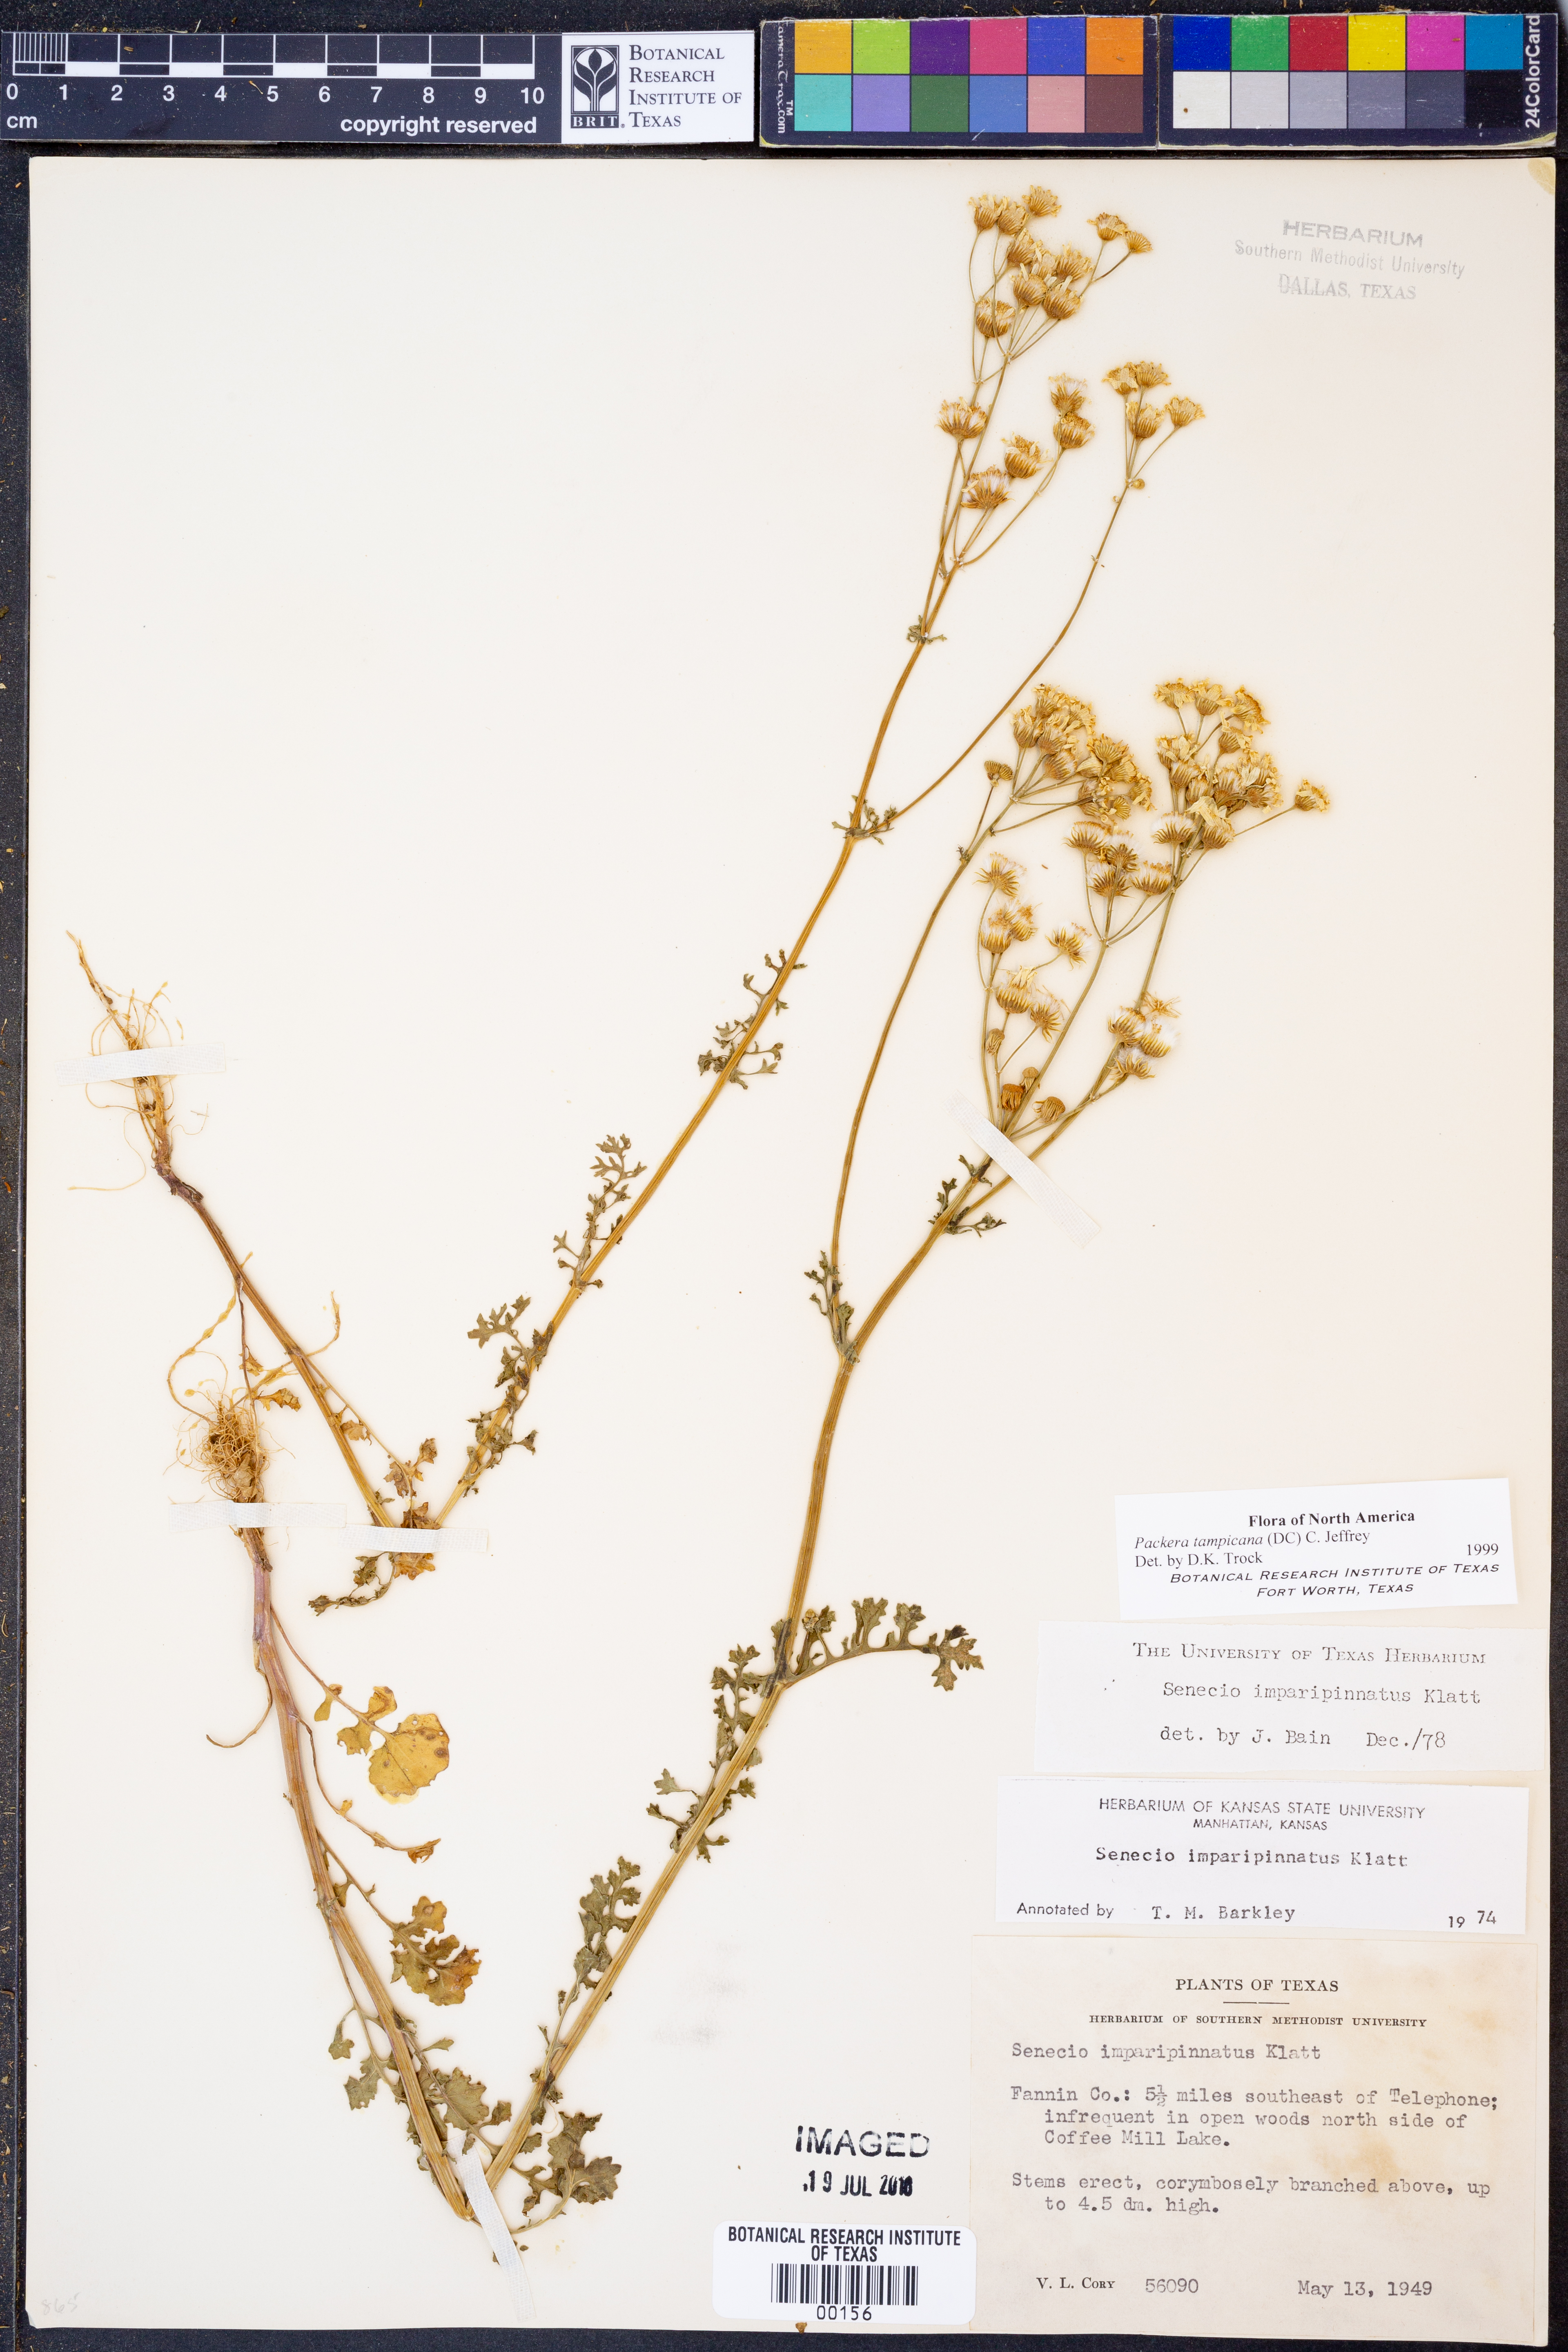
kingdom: Plantae
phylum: Tracheophyta
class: Magnoliopsida
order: Asterales
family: Asteraceae
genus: Packera
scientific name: Packera tampicana
